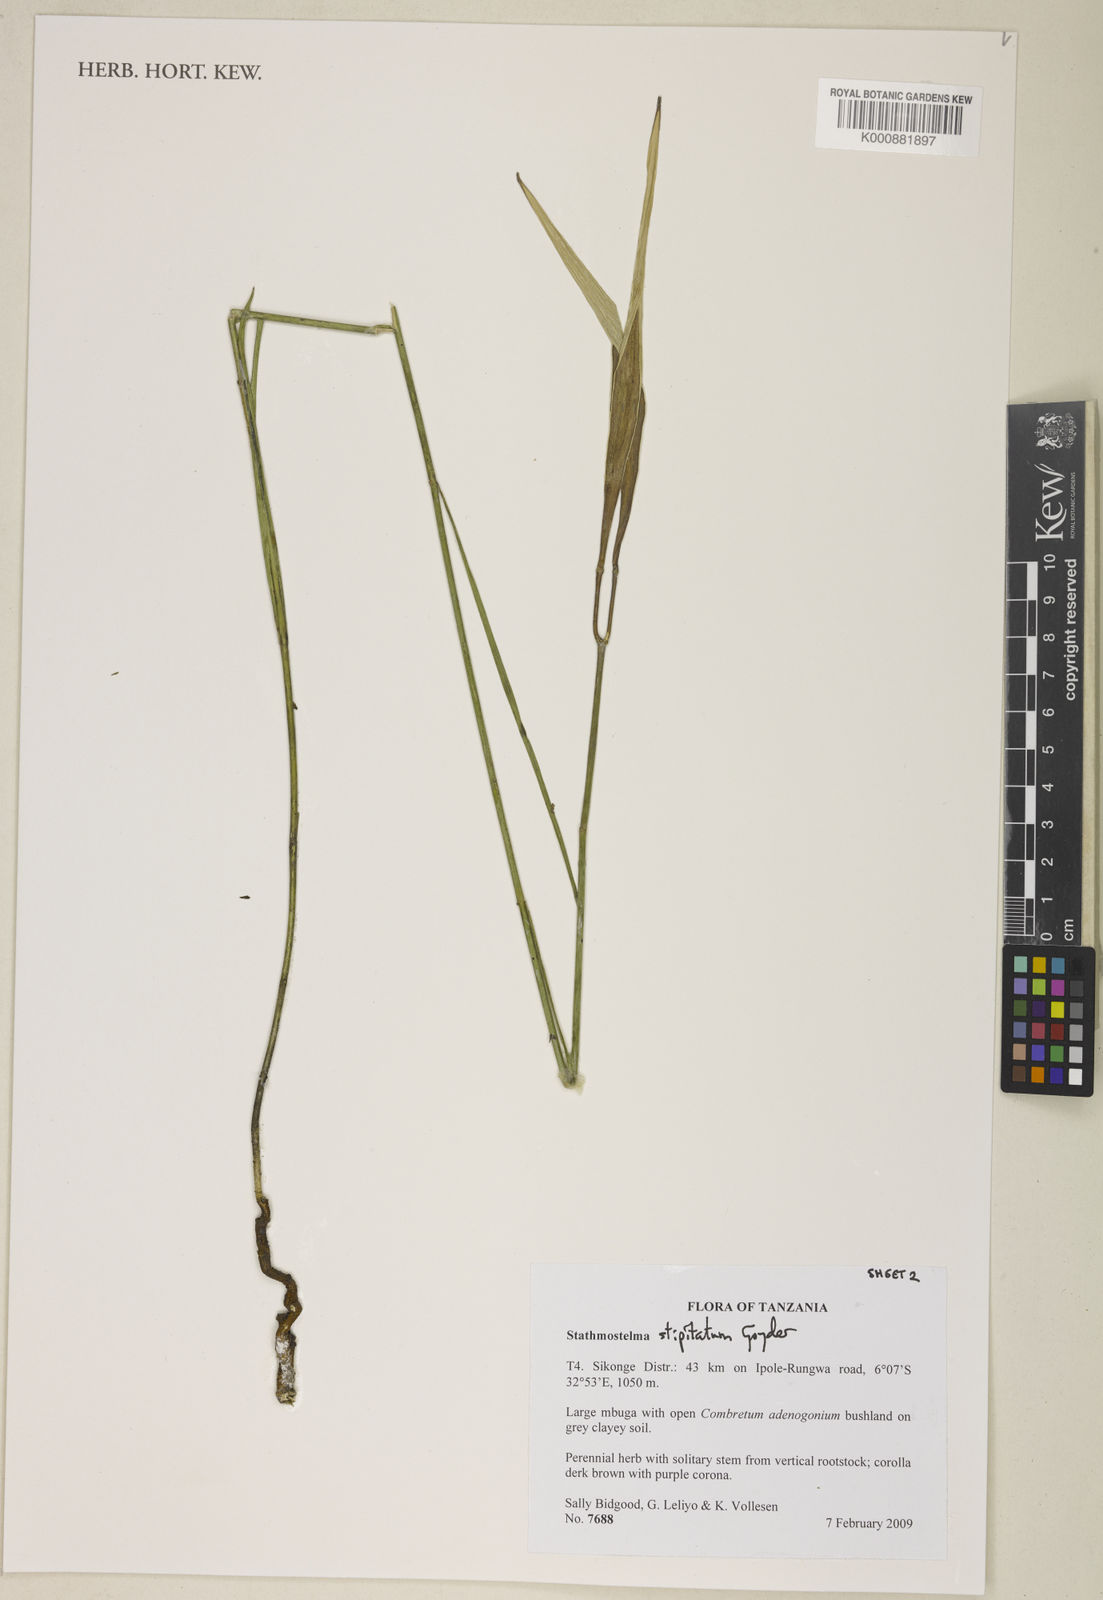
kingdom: Plantae
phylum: Tracheophyta
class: Magnoliopsida
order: Gentianales
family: Apocynaceae
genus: Stathmostelma
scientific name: Stathmostelma stipitatum
